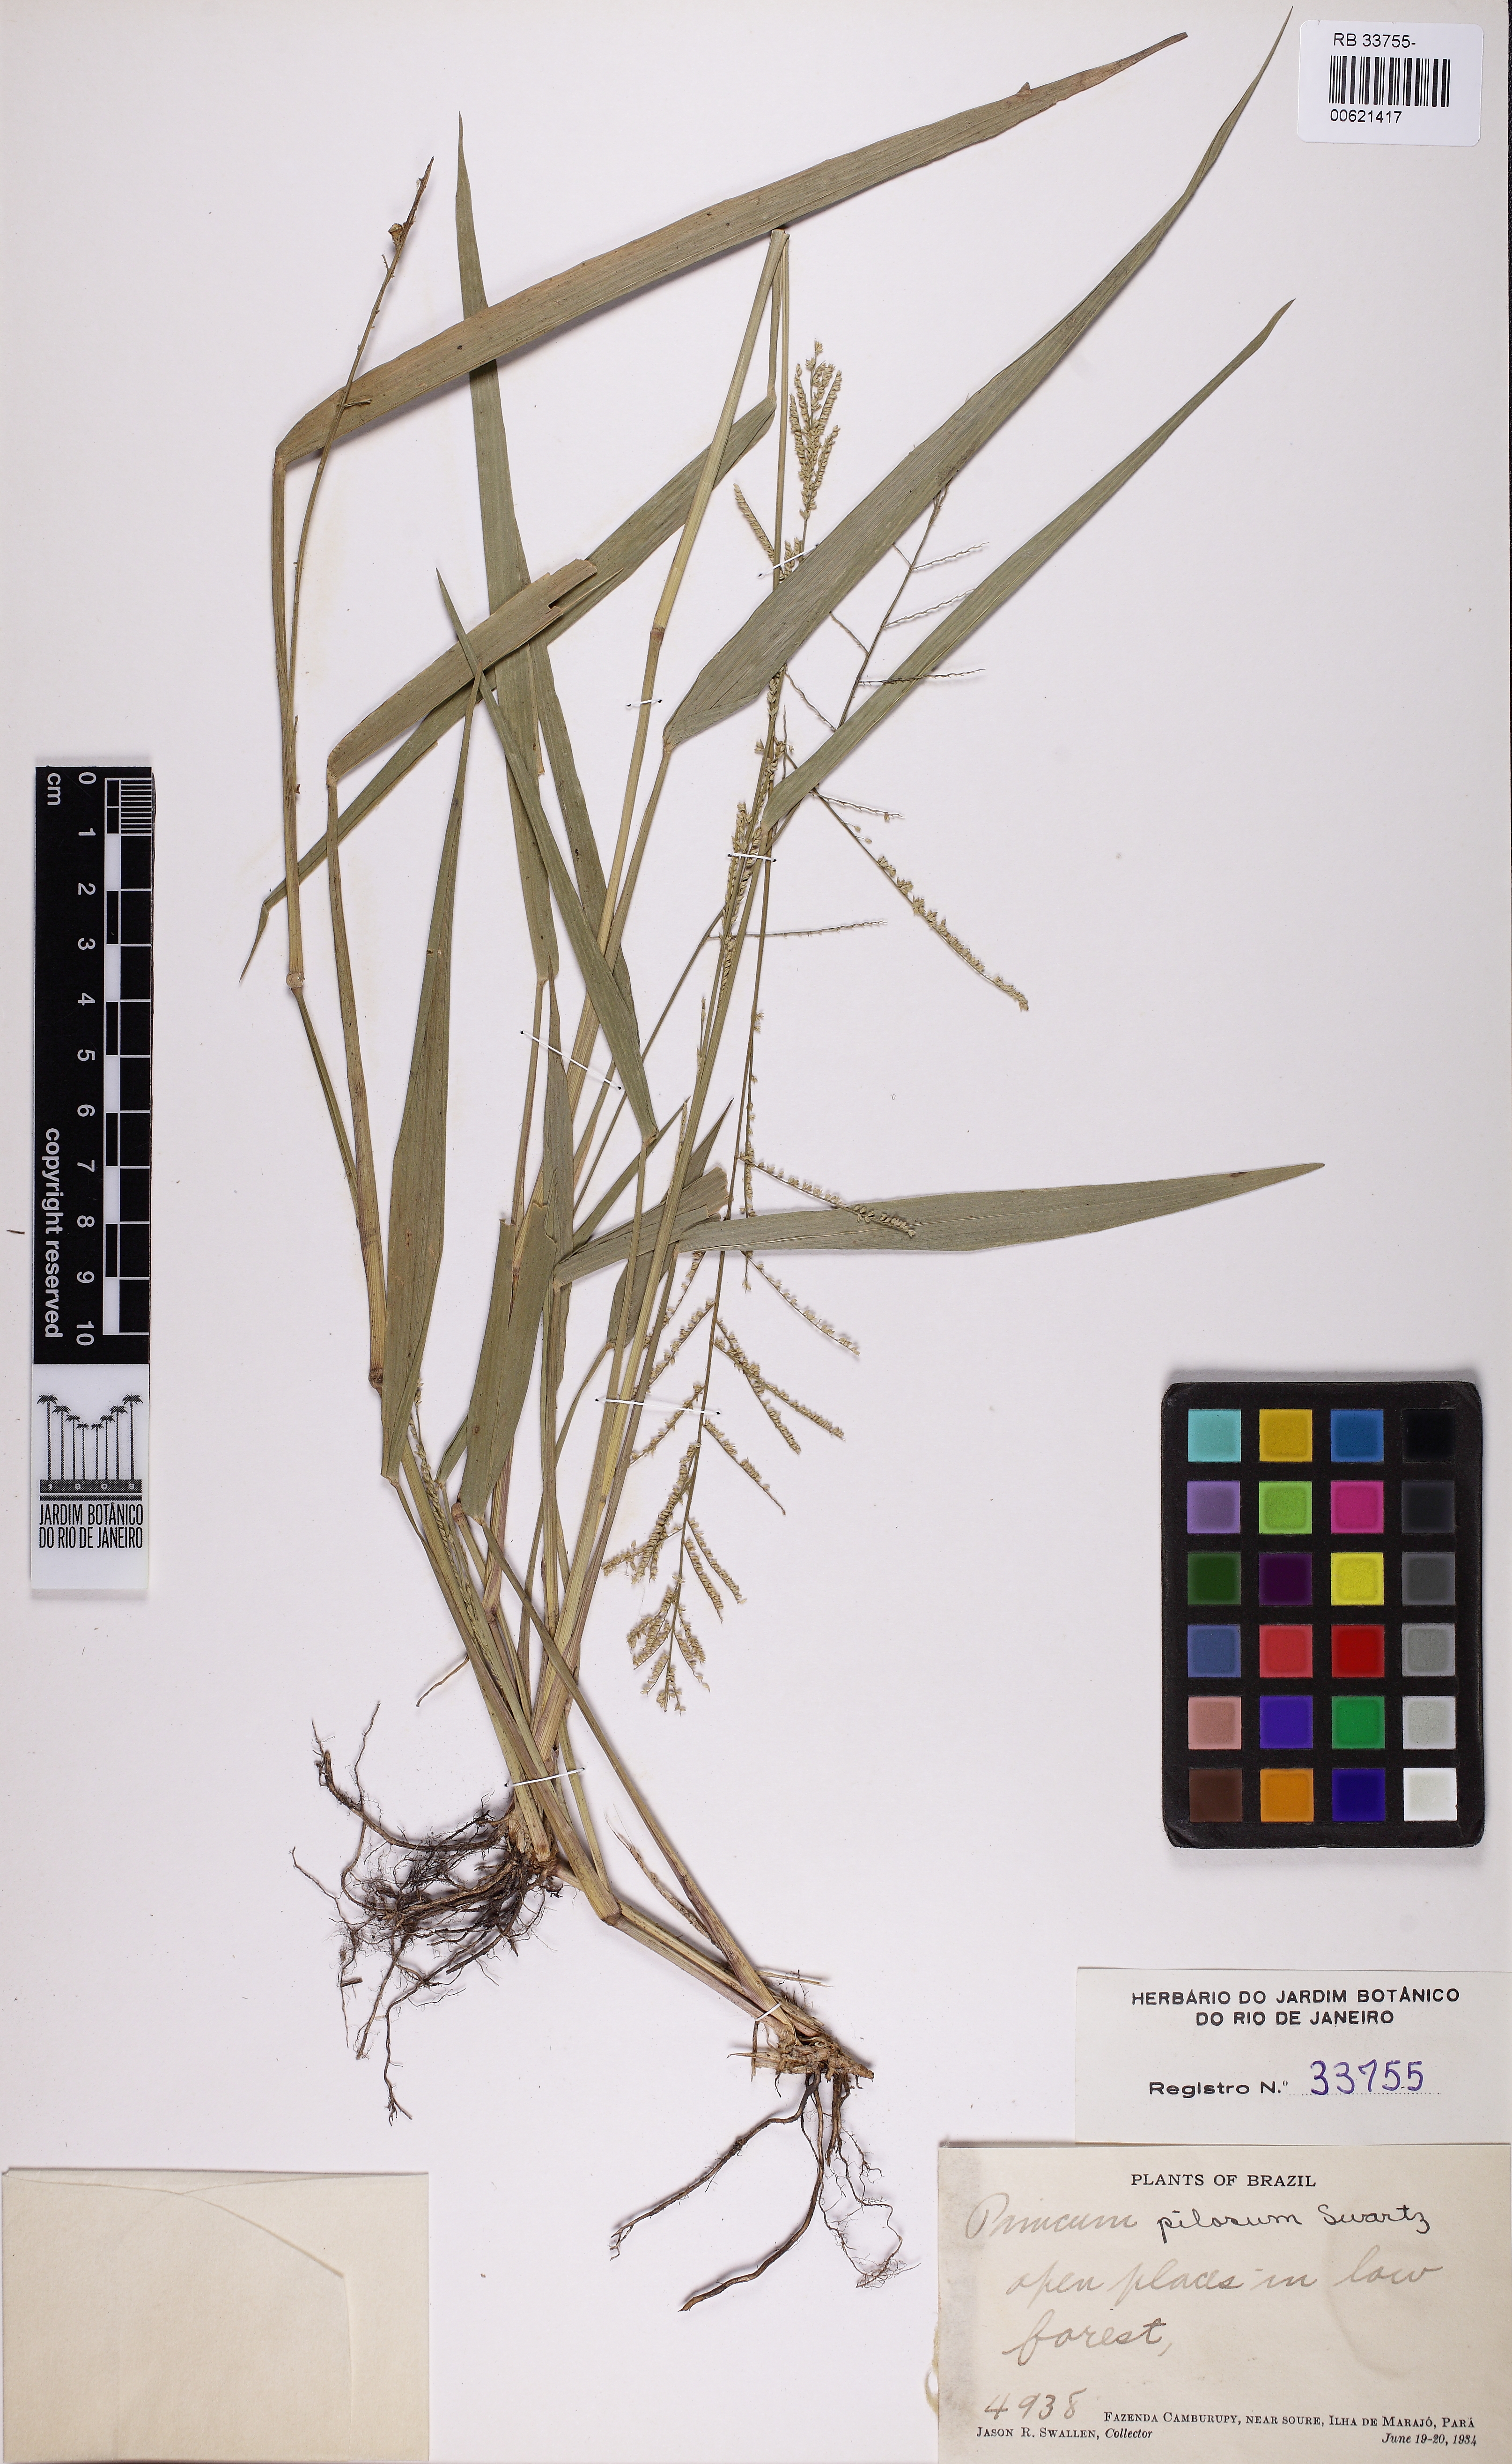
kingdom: Plantae
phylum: Tracheophyta
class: Liliopsida
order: Poales
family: Poaceae
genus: Rugoloa
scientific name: Rugoloa pilosa
